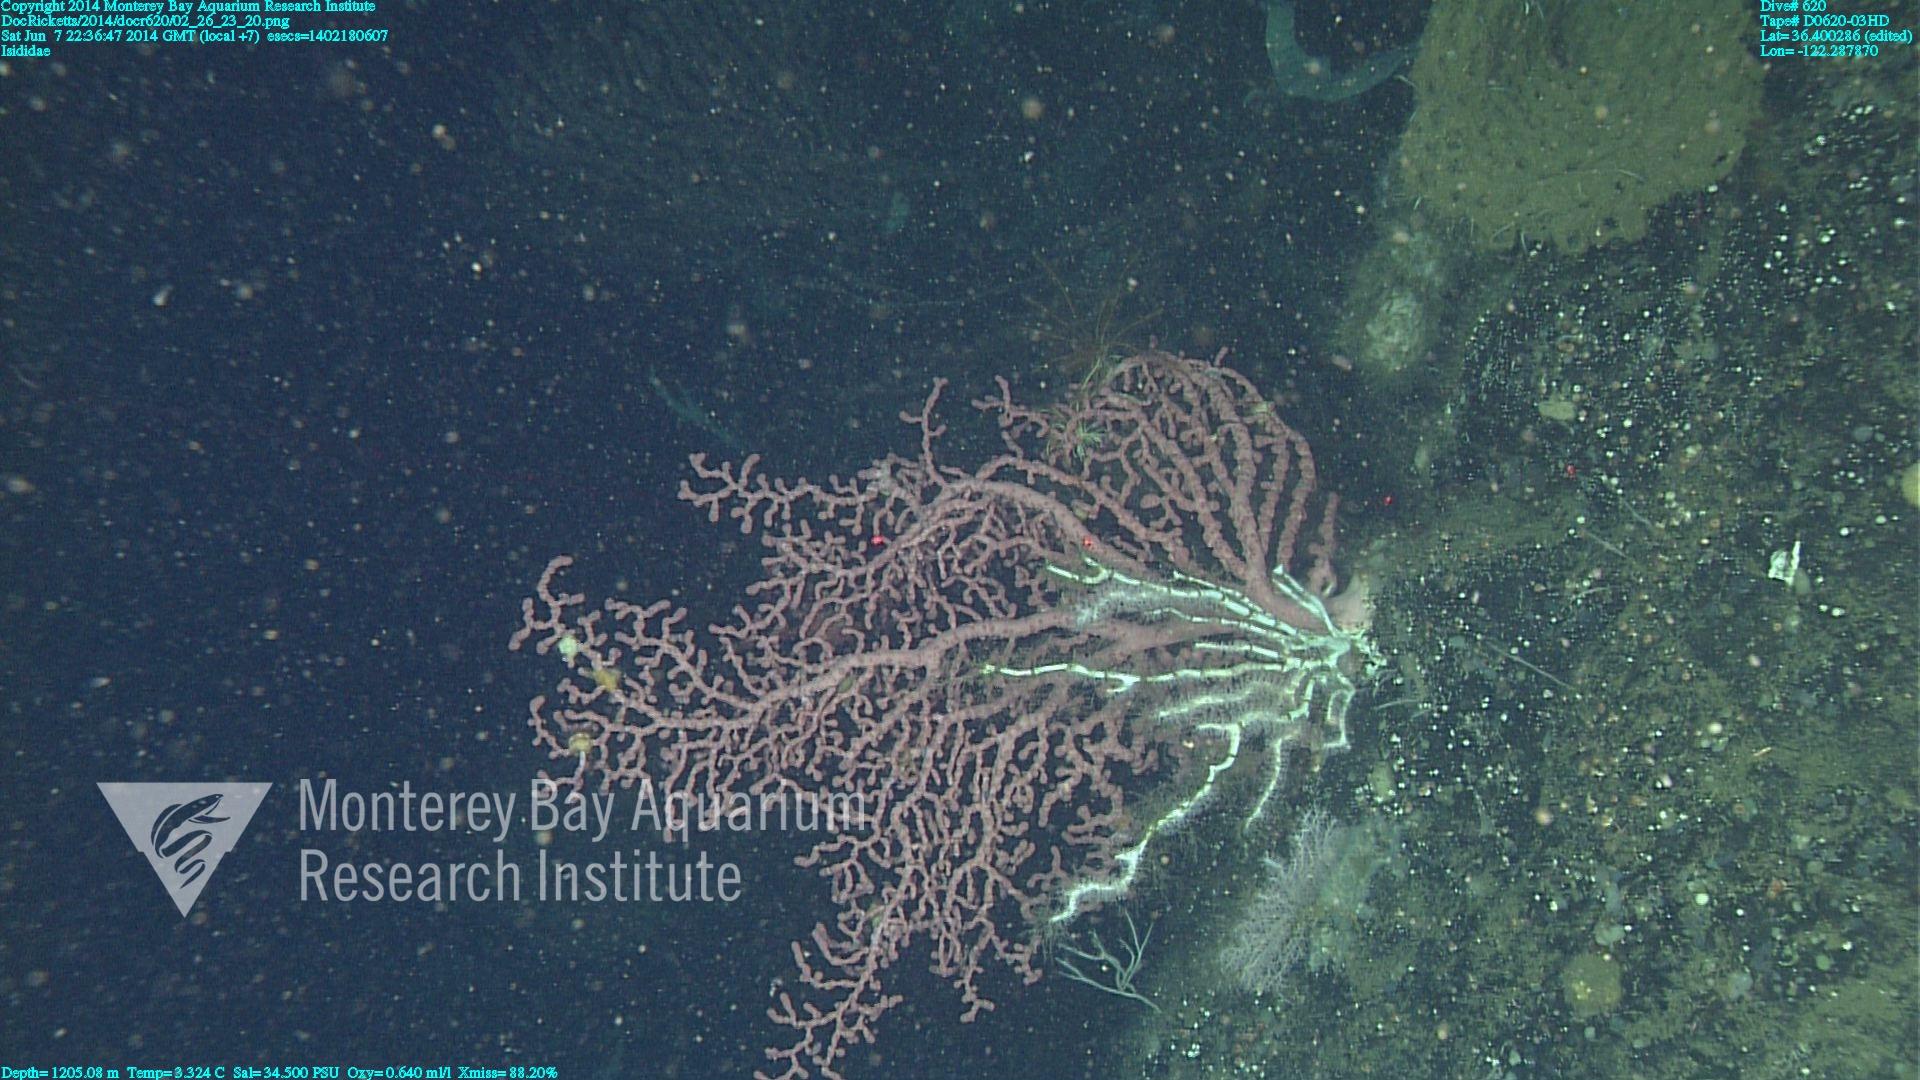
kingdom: Animalia
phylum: Cnidaria
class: Anthozoa
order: Scleralcyonacea
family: Keratoisididae
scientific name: Keratoisididae
